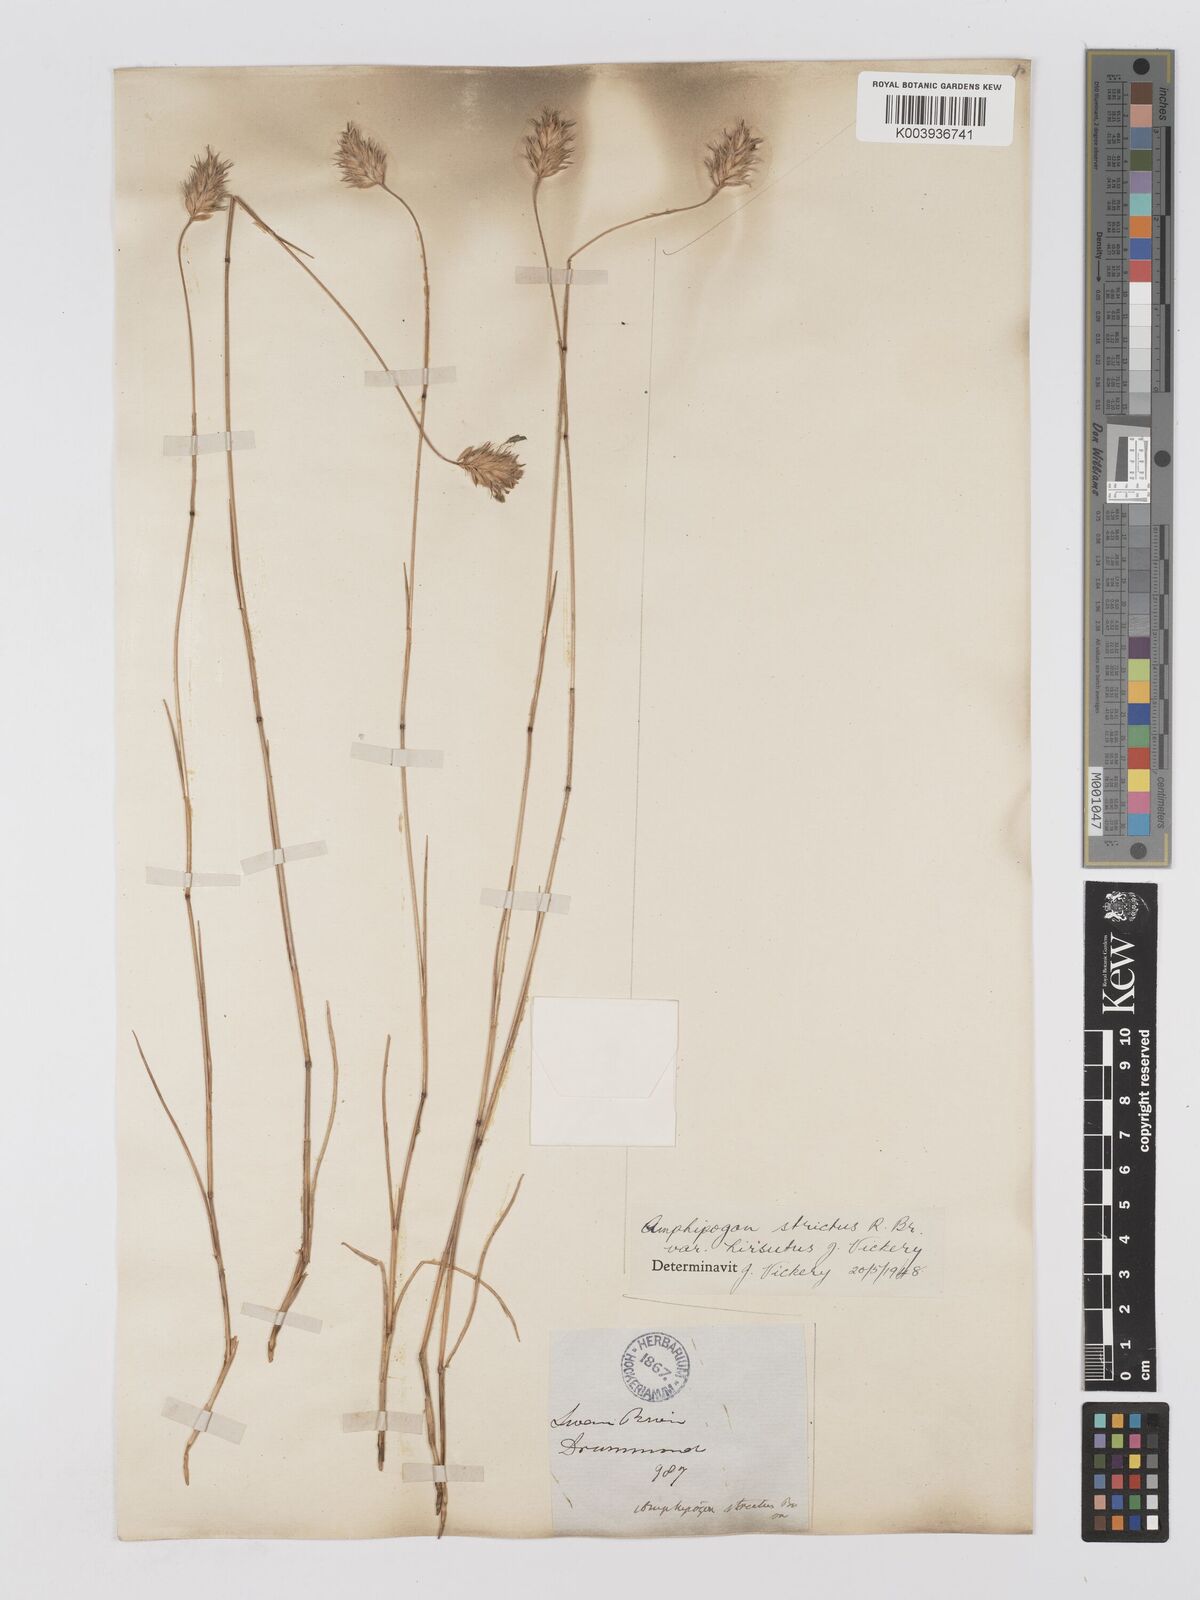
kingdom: Plantae
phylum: Tracheophyta
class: Liliopsida
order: Poales
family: Poaceae
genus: Amphipogon
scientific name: Amphipogon strictus
